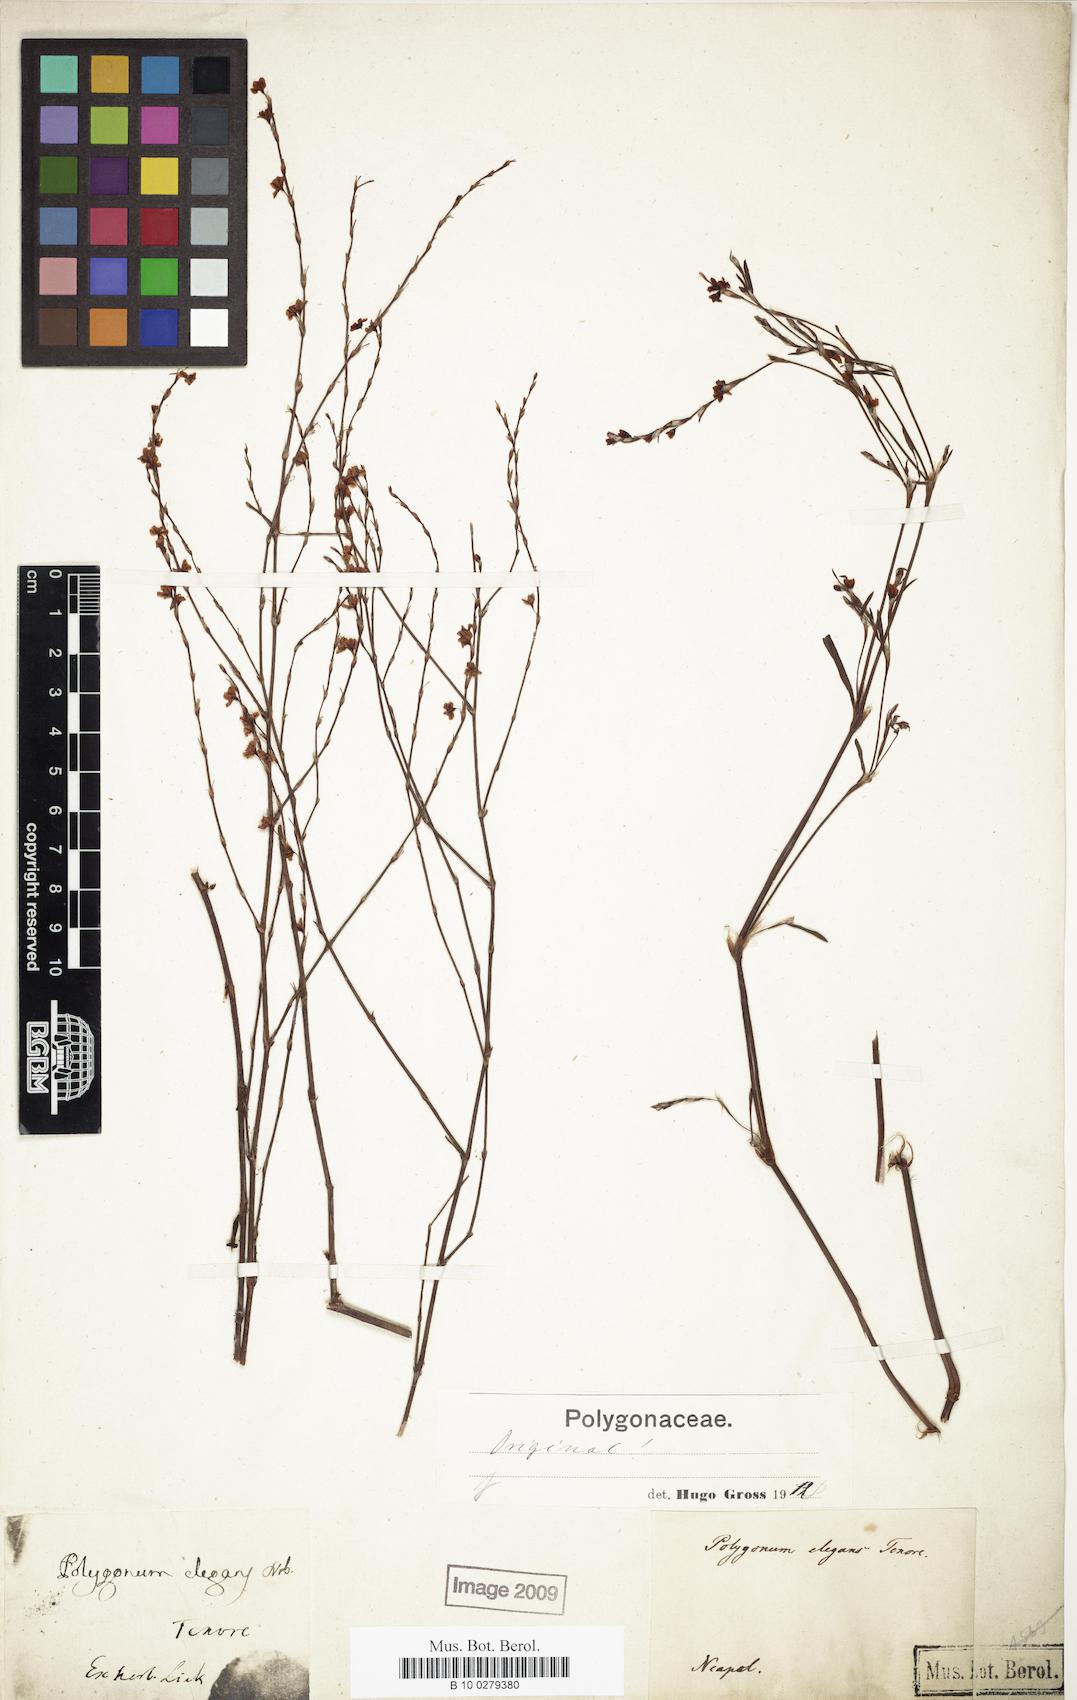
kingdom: Plantae
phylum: Tracheophyta
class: Magnoliopsida
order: Caryophyllales
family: Polygonaceae
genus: Polygonum
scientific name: Polygonum tenorei
